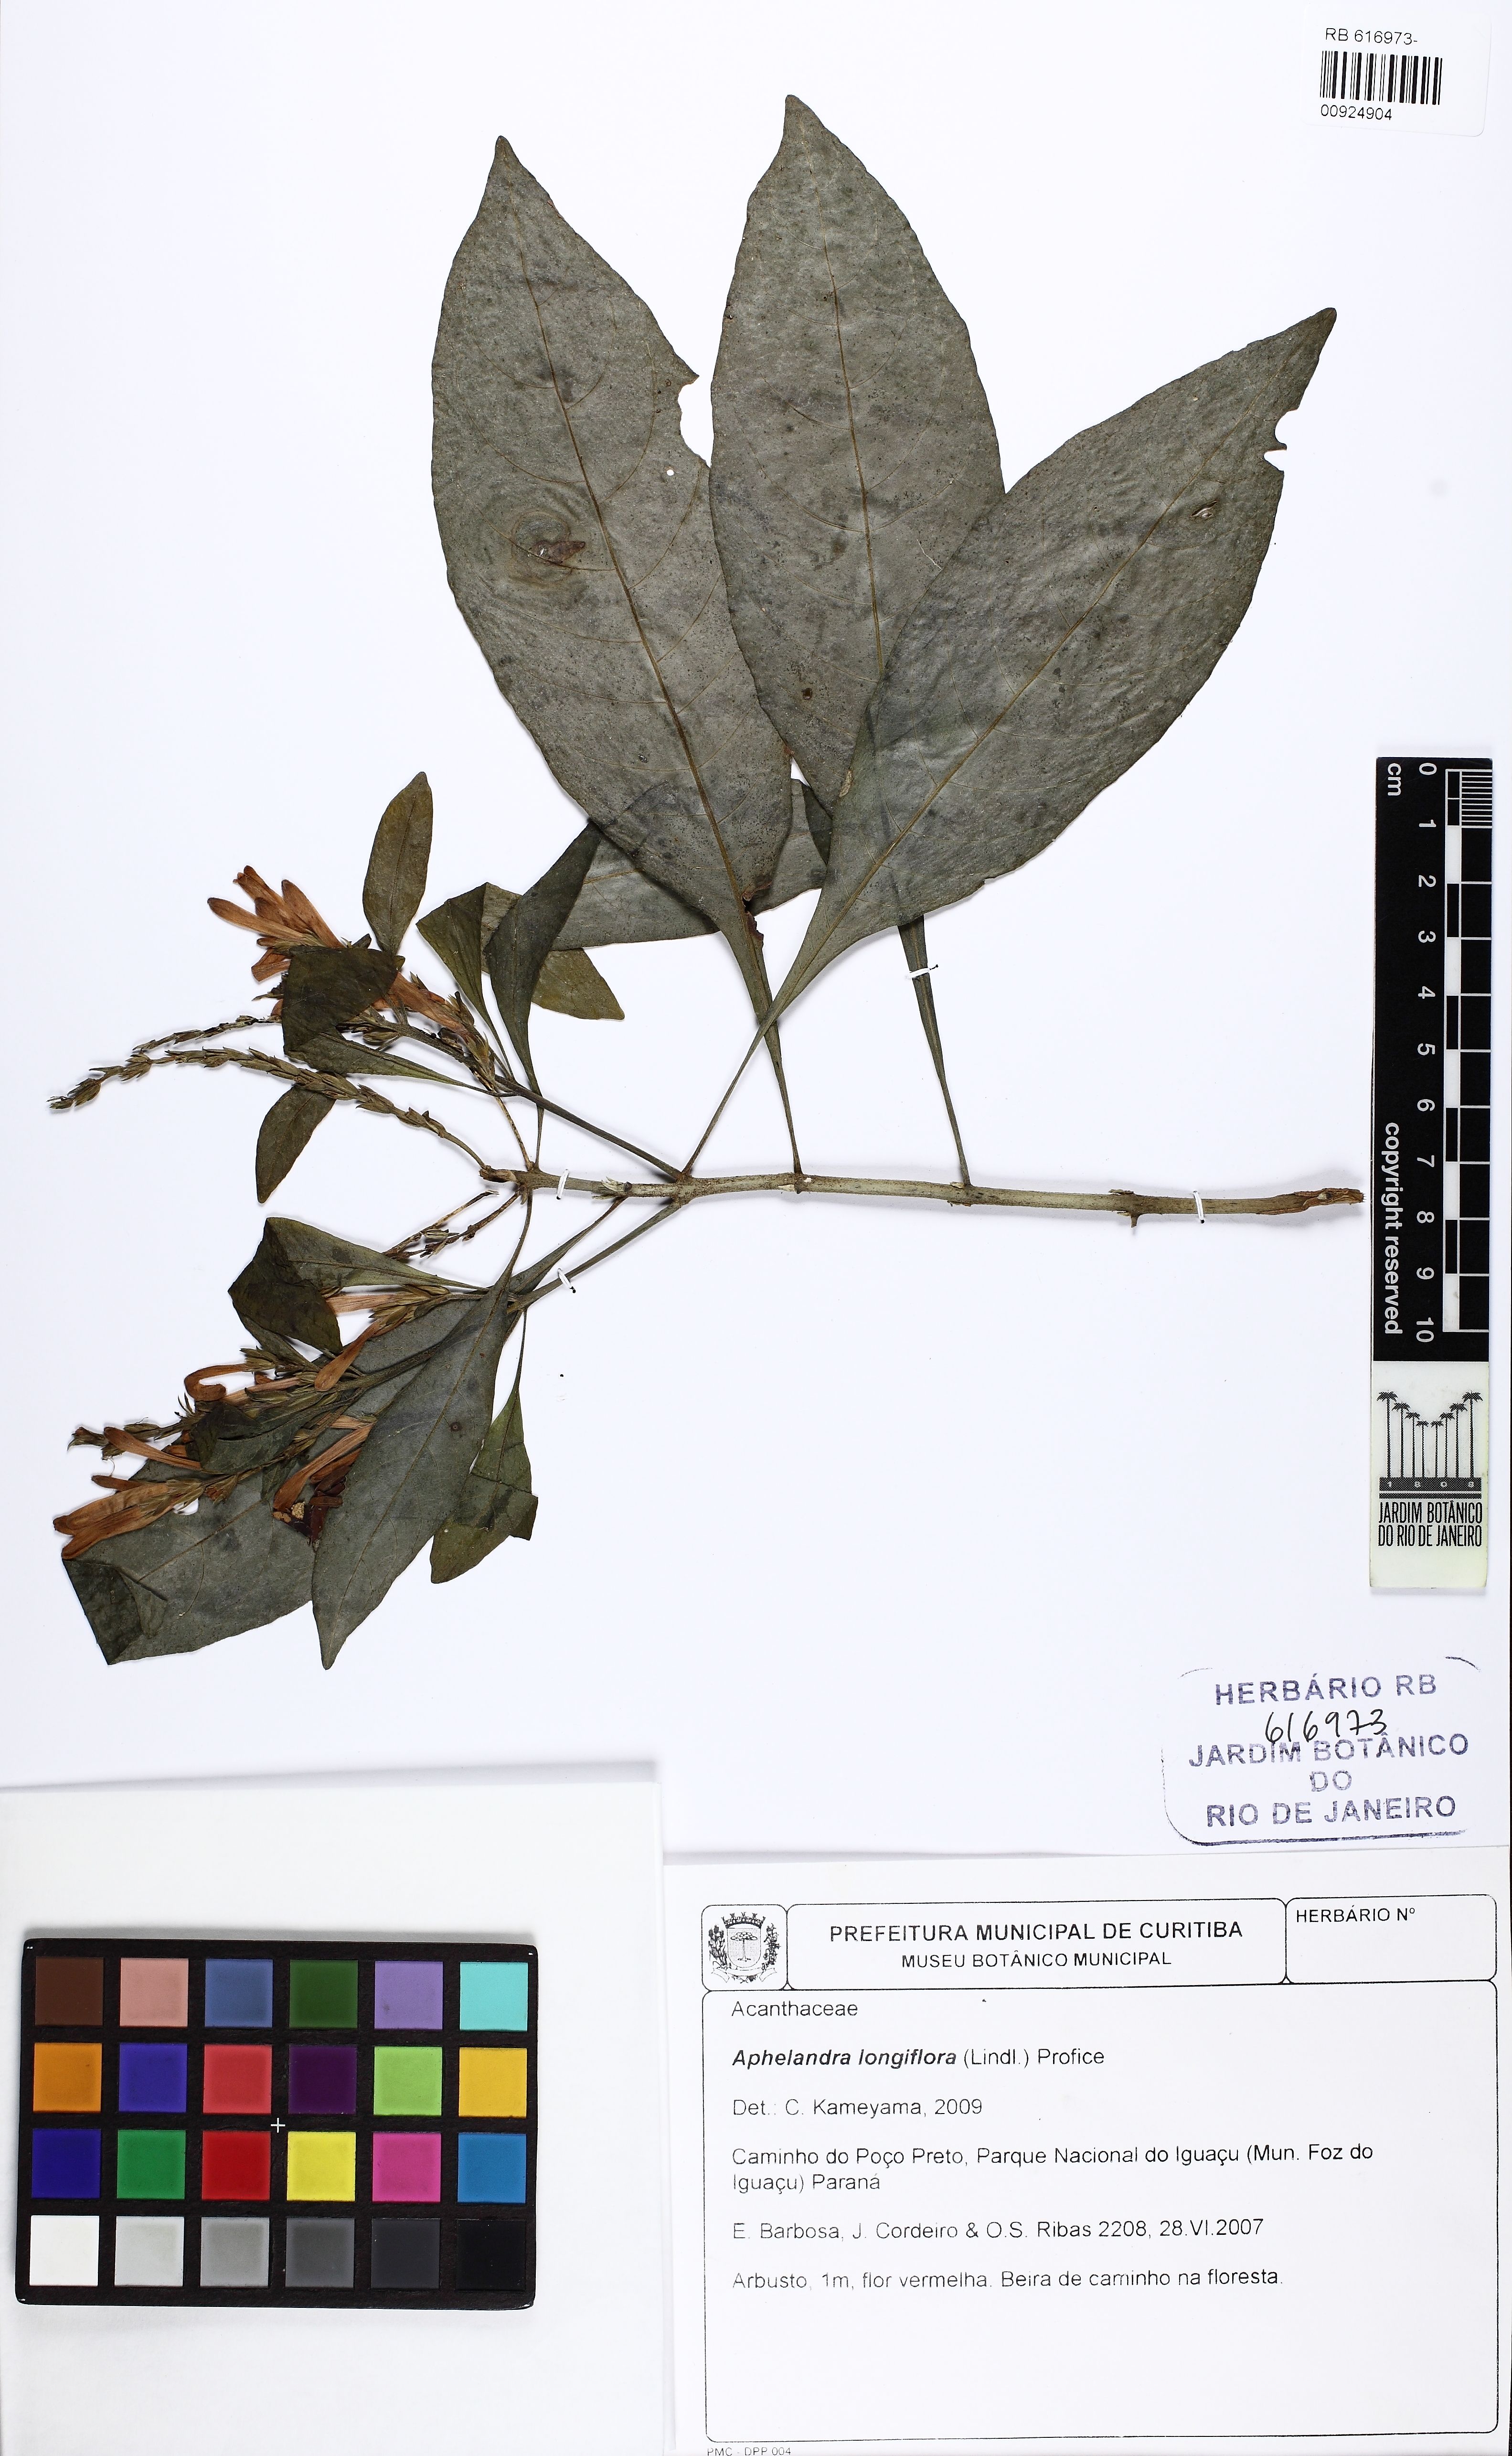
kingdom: Plantae
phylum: Tracheophyta
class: Magnoliopsida
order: Lamiales
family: Acanthaceae
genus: Aphelandra
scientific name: Aphelandra longiflora
